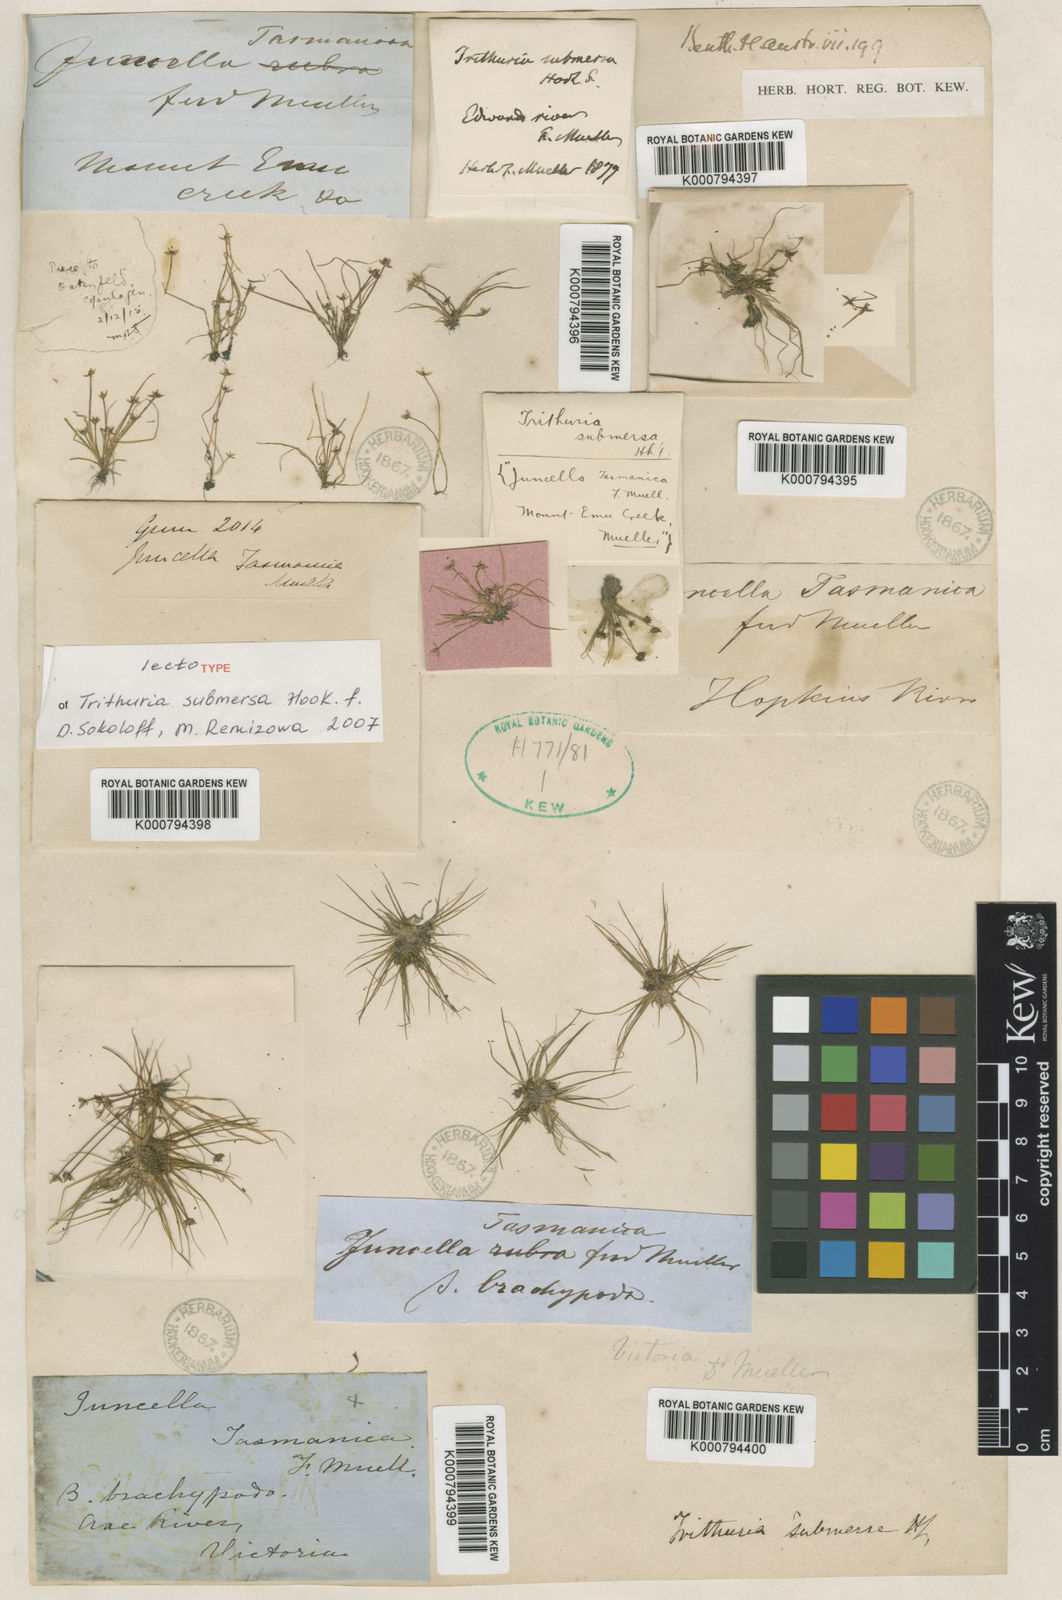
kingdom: Plantae
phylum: Tracheophyta
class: Magnoliopsida
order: Nymphaeales
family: Hydatellaceae
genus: Trithuria
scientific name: Trithuria submersa
